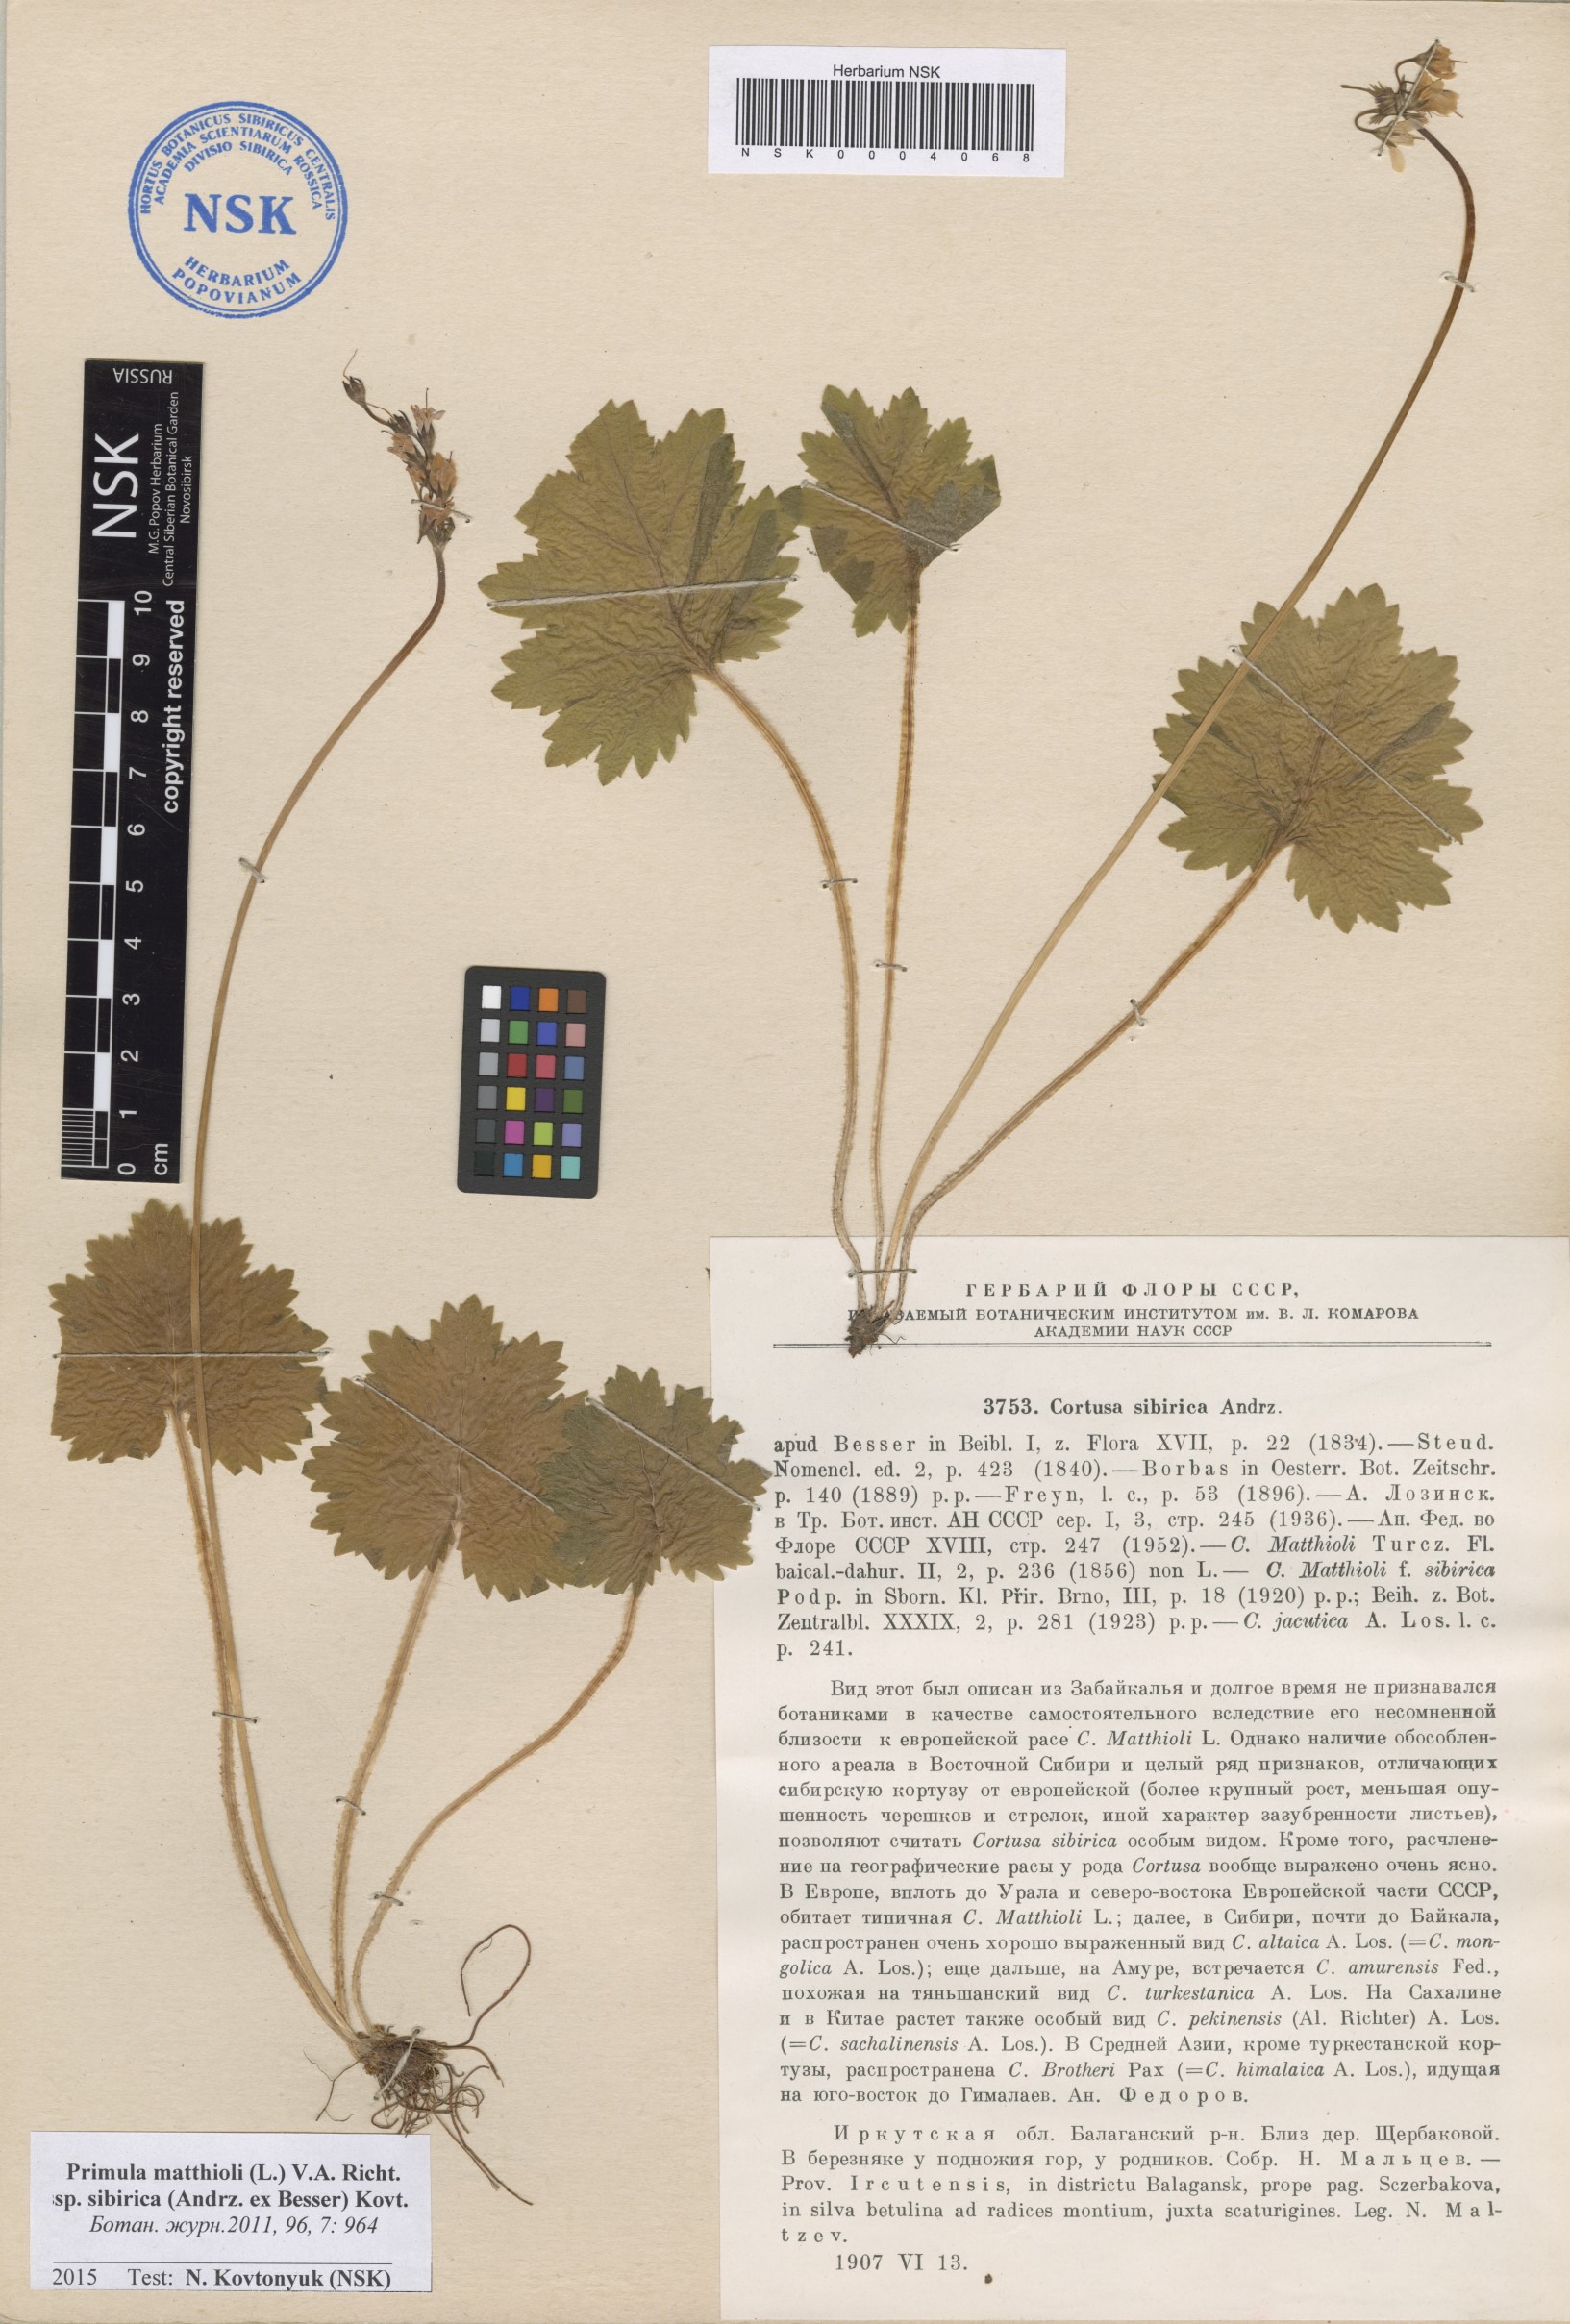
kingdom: Plantae
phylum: Tracheophyta
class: Magnoliopsida
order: Ericales
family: Primulaceae
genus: Primula
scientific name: Primula matthioli
